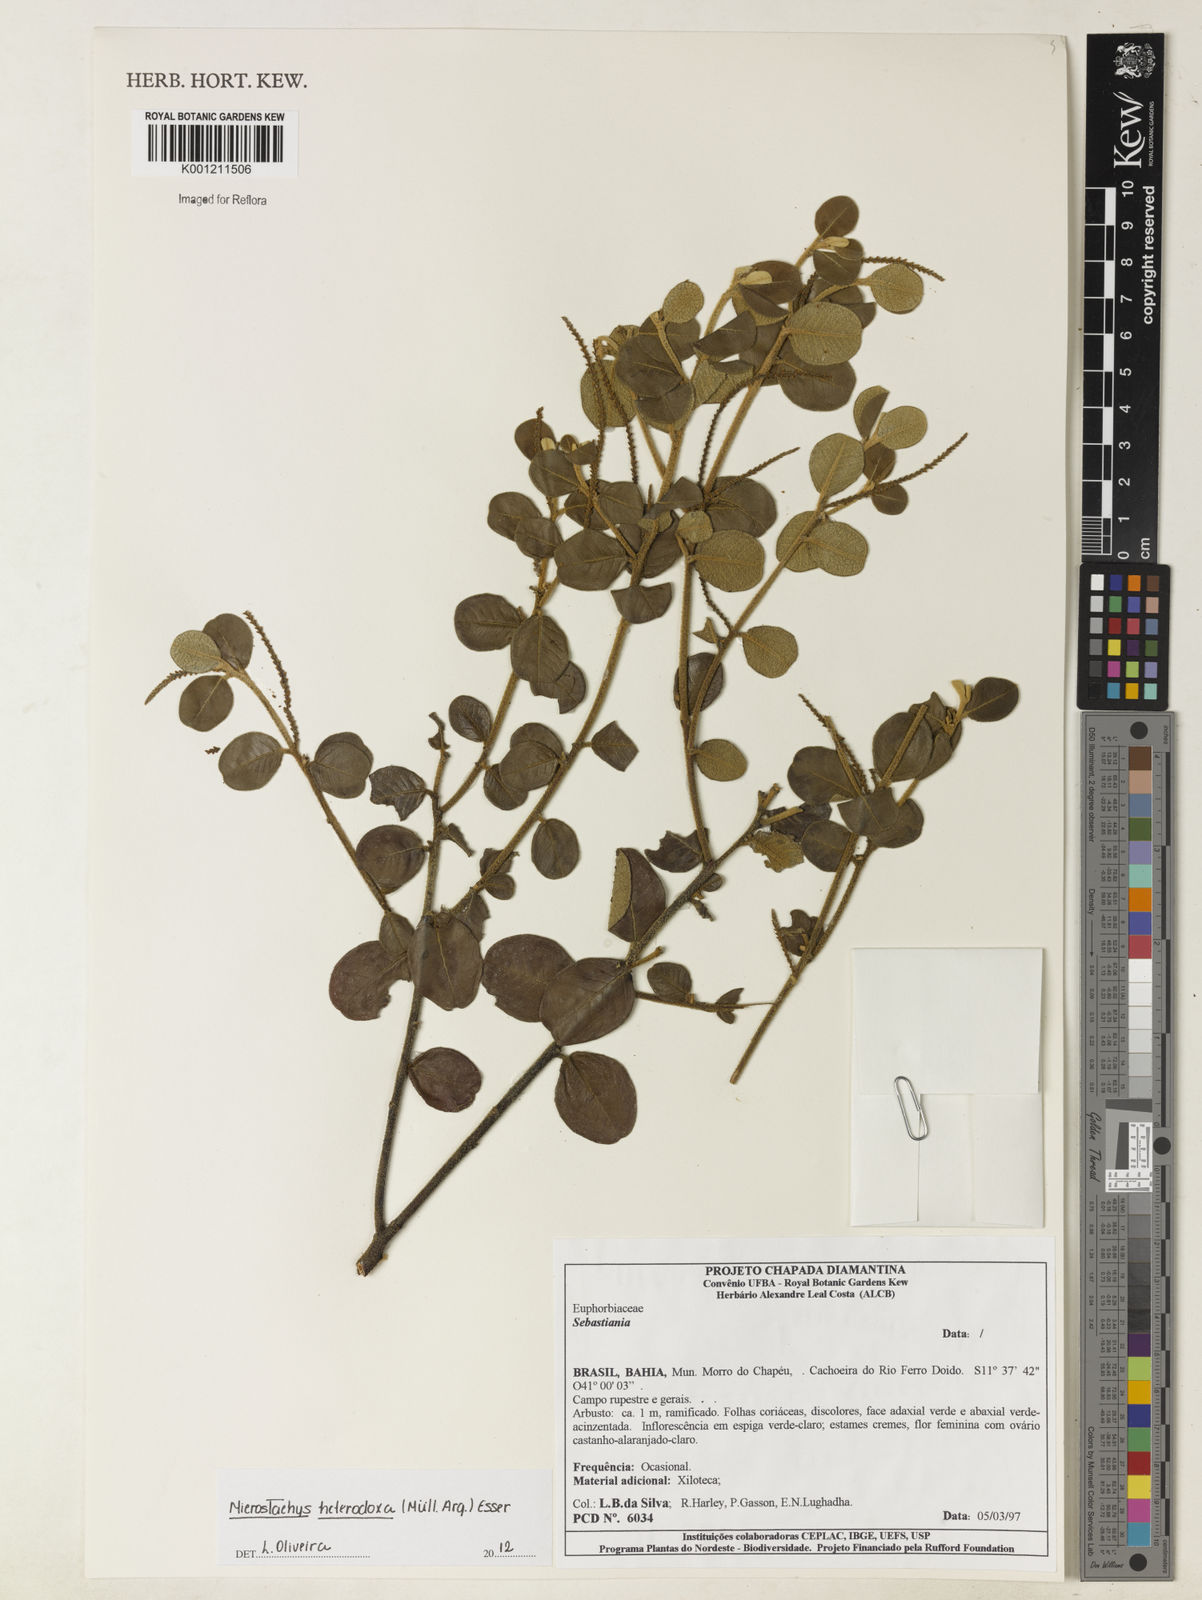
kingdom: Plantae
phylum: Tracheophyta
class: Magnoliopsida
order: Malpighiales
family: Euphorbiaceae
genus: Microstachys
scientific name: Microstachys
